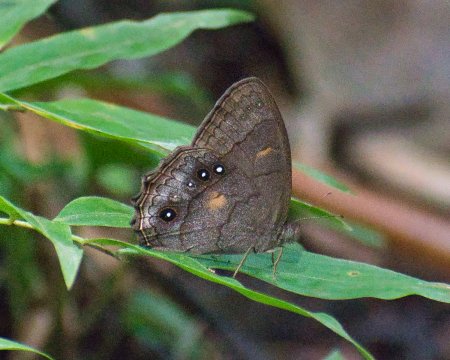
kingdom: Animalia
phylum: Arthropoda
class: Insecta
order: Lepidoptera
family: Nymphalidae
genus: Taygetis
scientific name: Taygetis kerea
